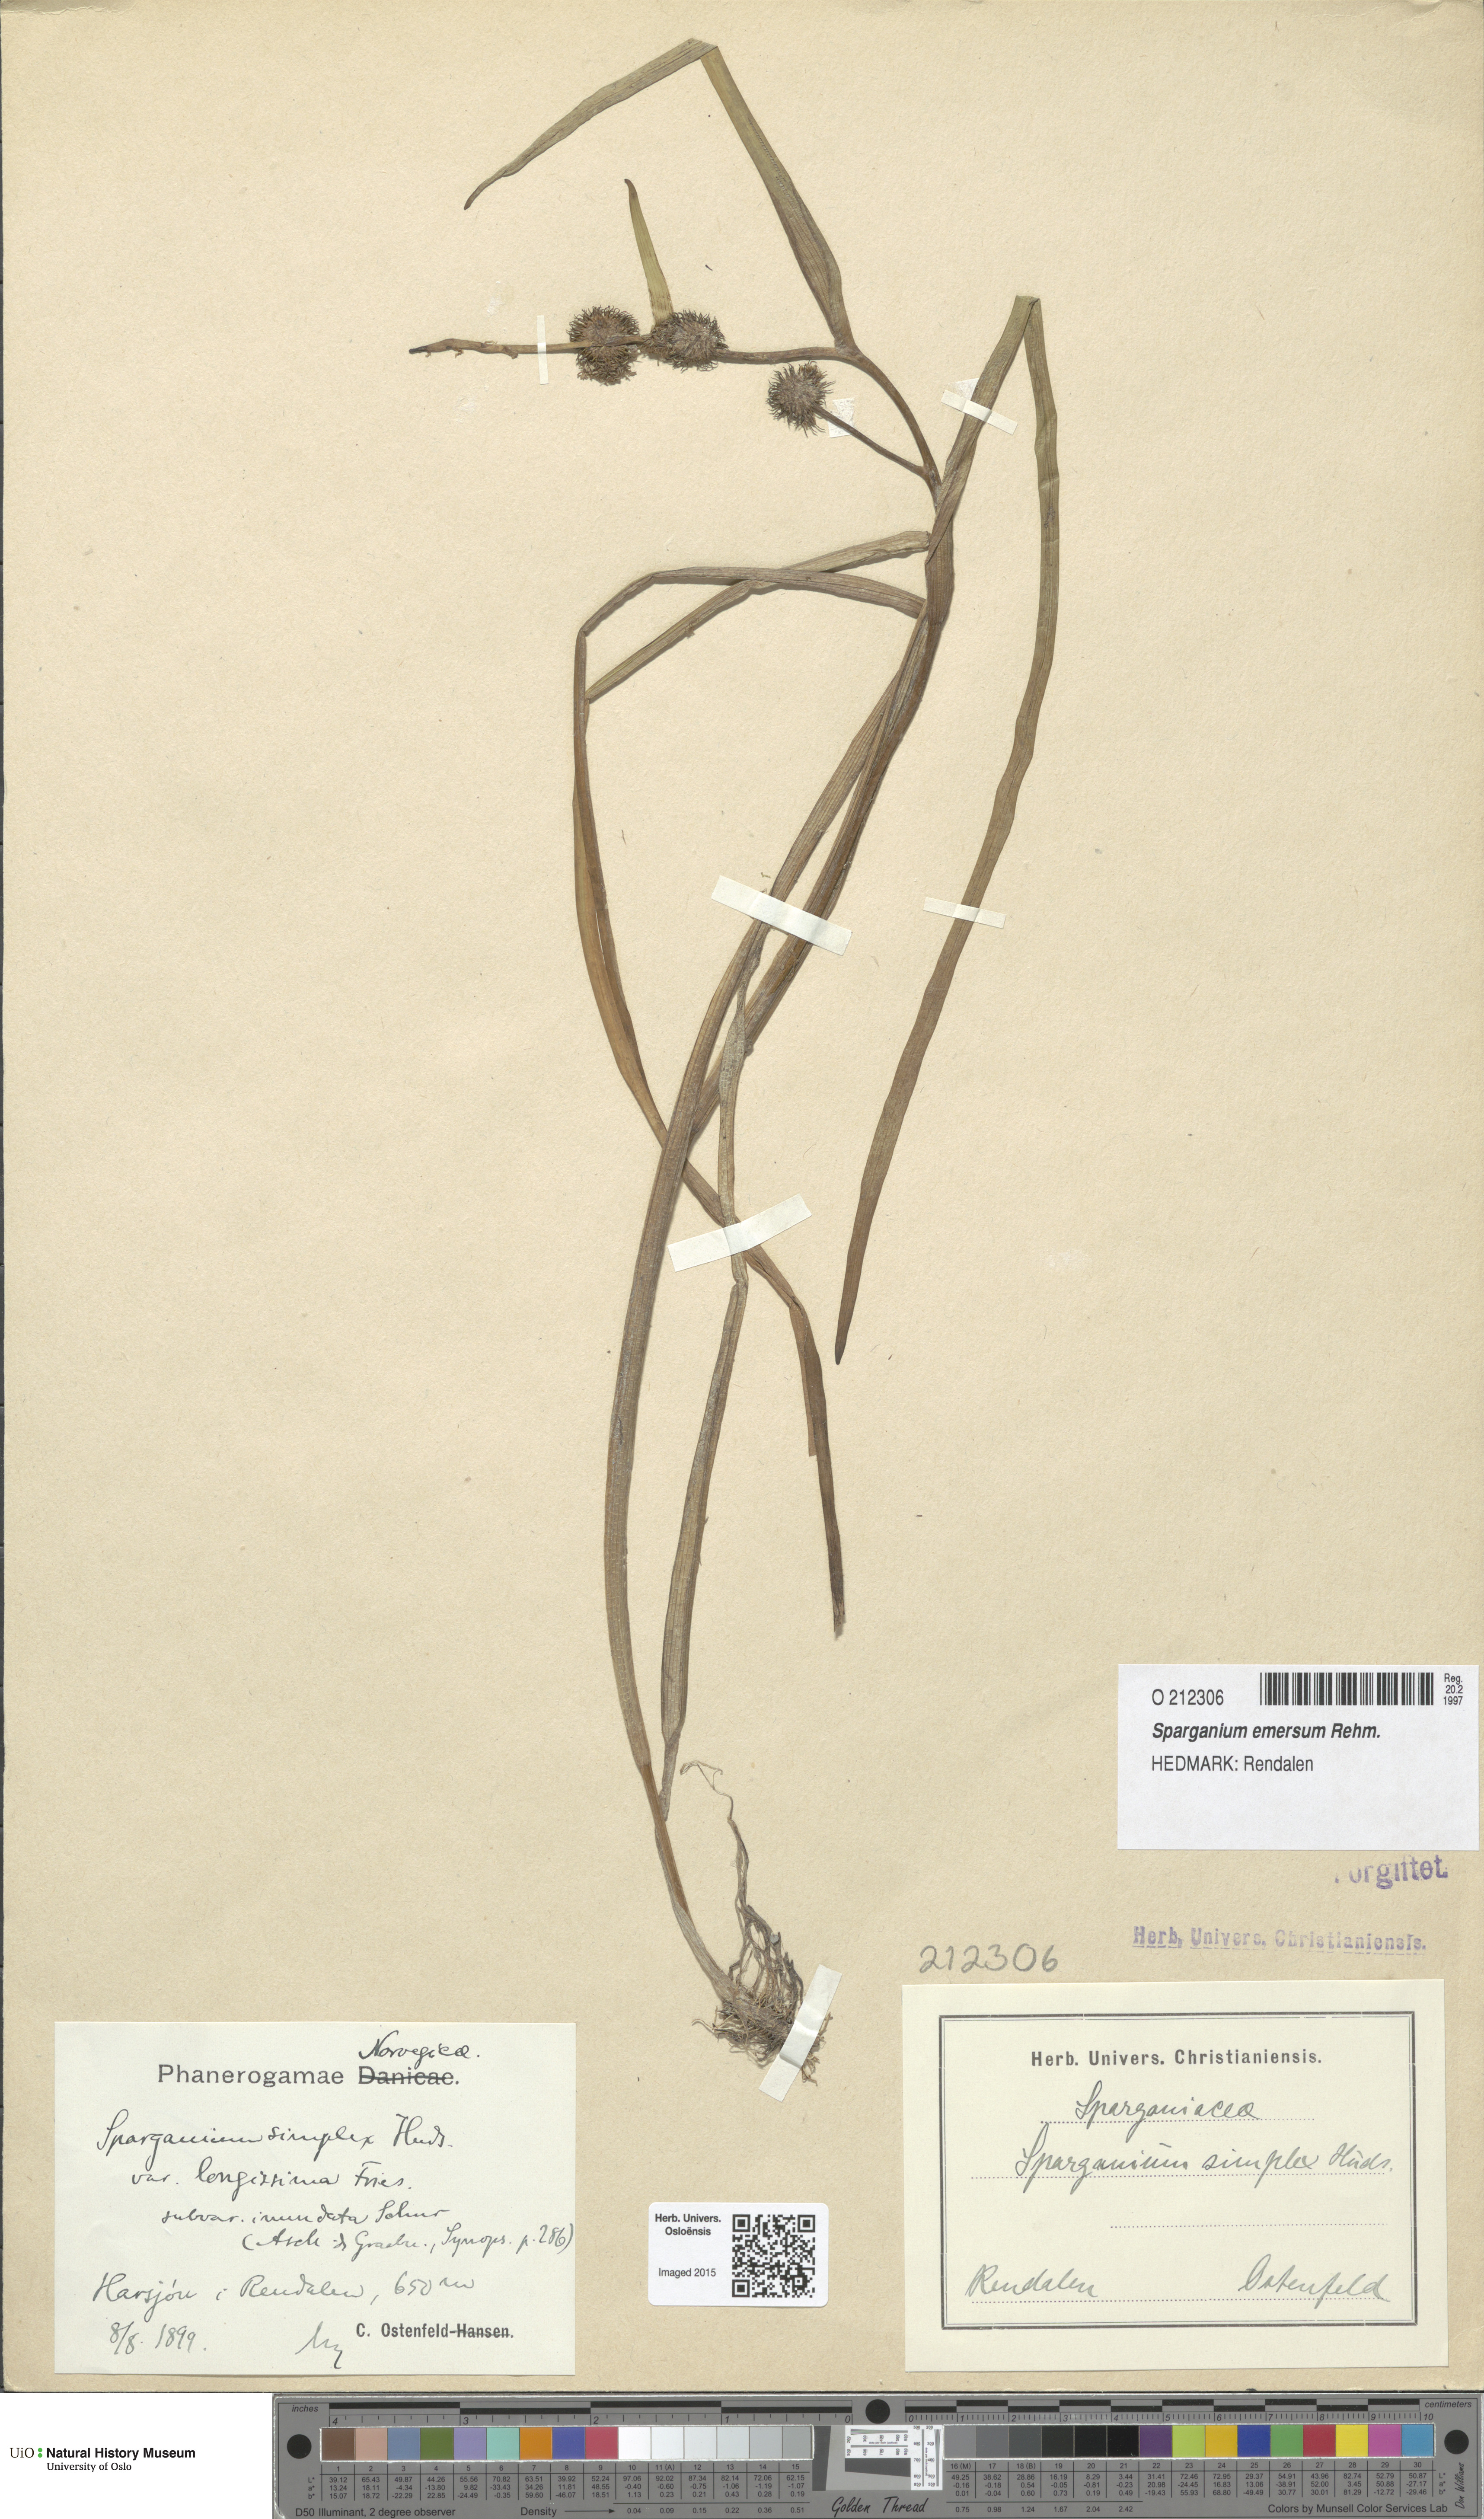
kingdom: Plantae
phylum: Tracheophyta
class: Liliopsida
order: Poales
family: Typhaceae
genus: Sparganium
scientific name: Sparganium emersum
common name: Unbranched bur-reed
